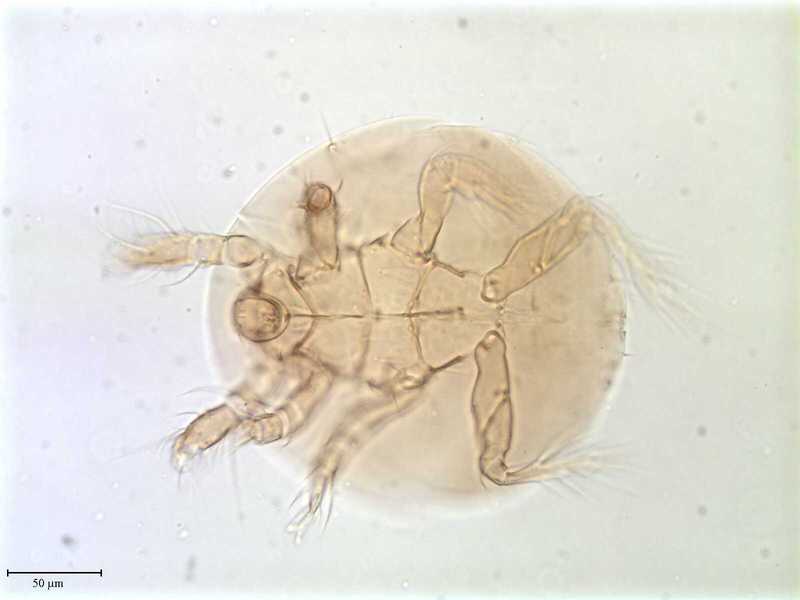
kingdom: Animalia
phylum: Arthropoda
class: Arachnida
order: Trombidiformes
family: Scutacaridae
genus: Scutacarus
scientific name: Scutacarus
